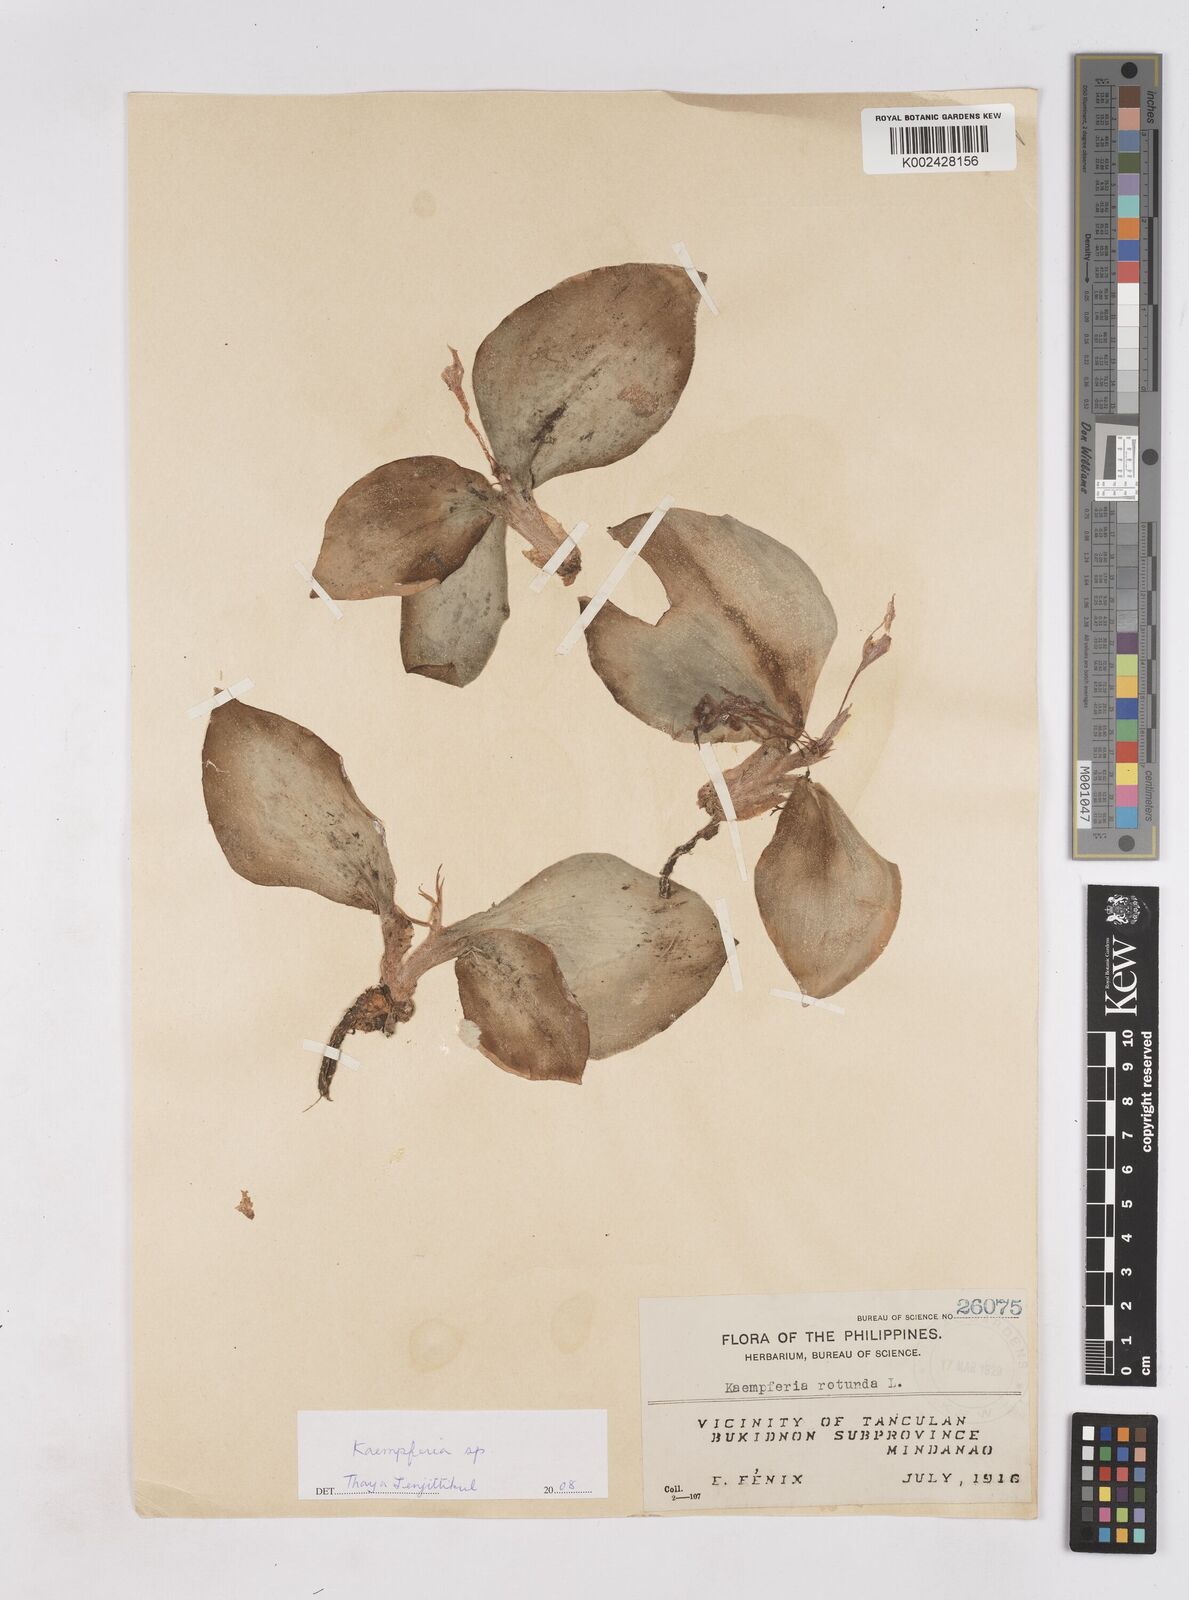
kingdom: Plantae
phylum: Tracheophyta
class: Liliopsida
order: Zingiberales
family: Zingiberaceae
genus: Kaempferia
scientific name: Kaempferia rotunda
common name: Tropical-crocus
